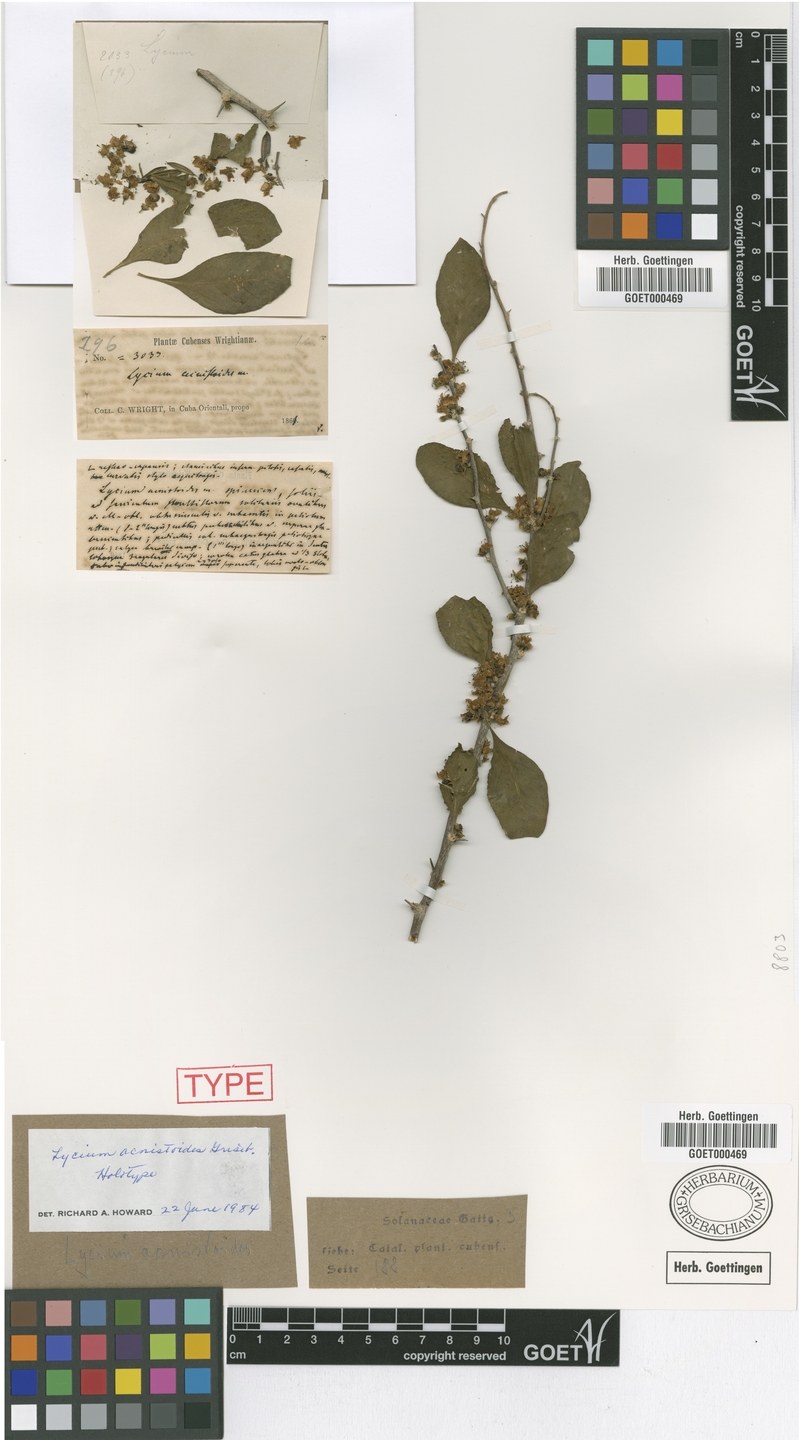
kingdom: Plantae
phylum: Tracheophyta
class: Magnoliopsida
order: Solanales
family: Solanaceae
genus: Lycium
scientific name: Lycium martii
